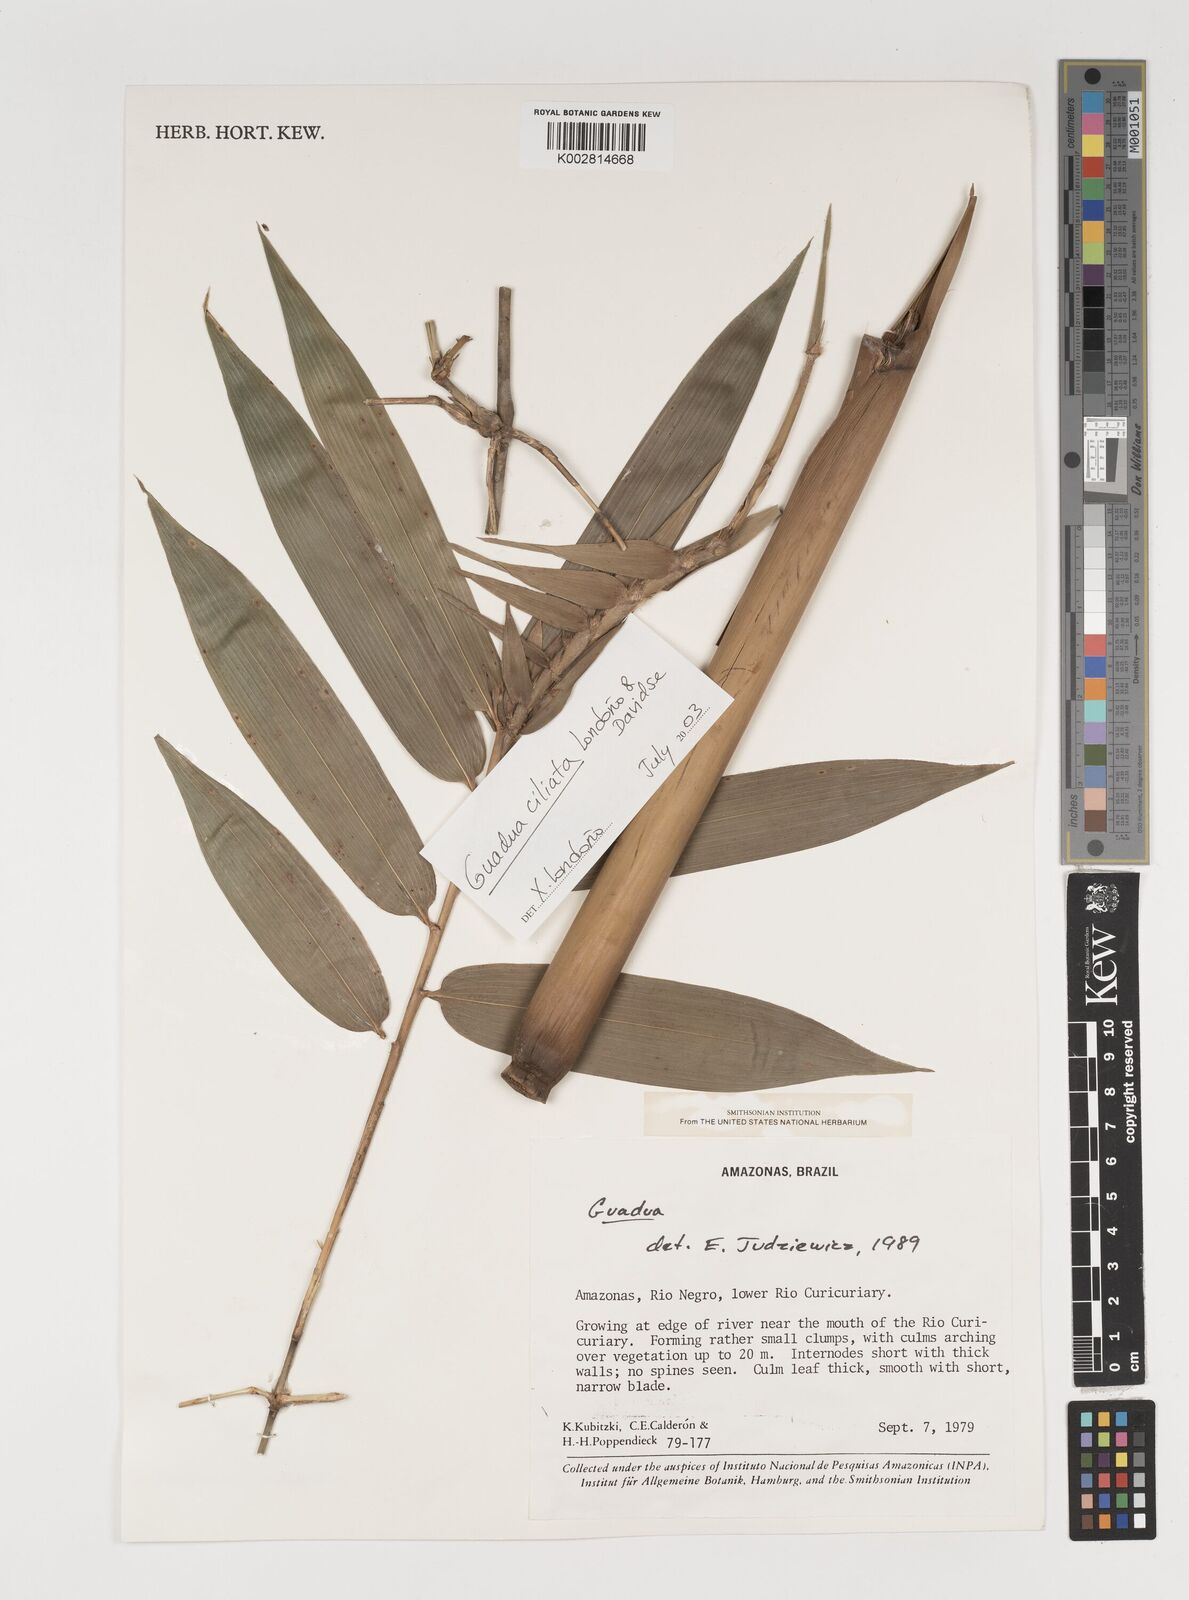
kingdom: Plantae
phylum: Tracheophyta
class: Liliopsida
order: Poales
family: Poaceae
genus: Guadua
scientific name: Guadua ciliata
